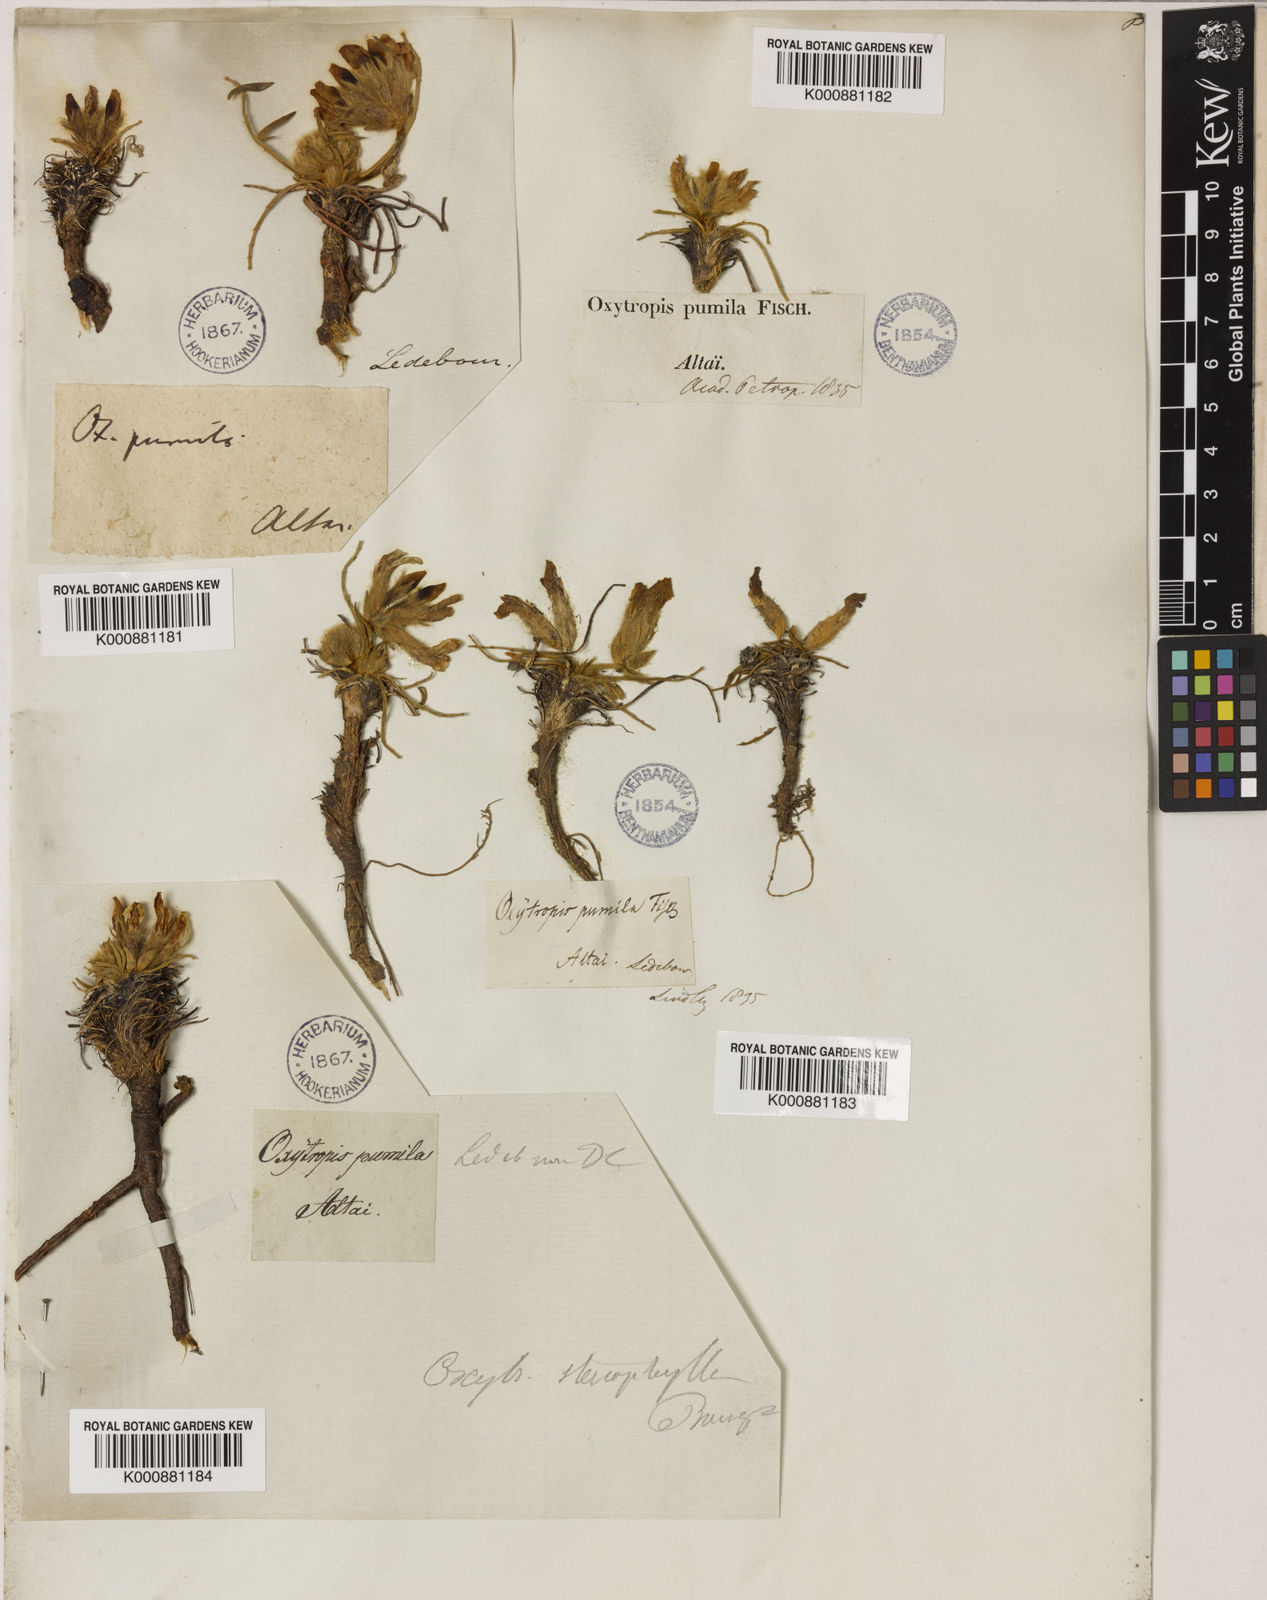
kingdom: Plantae
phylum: Tracheophyta
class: Magnoliopsida
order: Fabales
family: Fabaceae
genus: Oxytropis
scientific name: Oxytropis stenophylla
